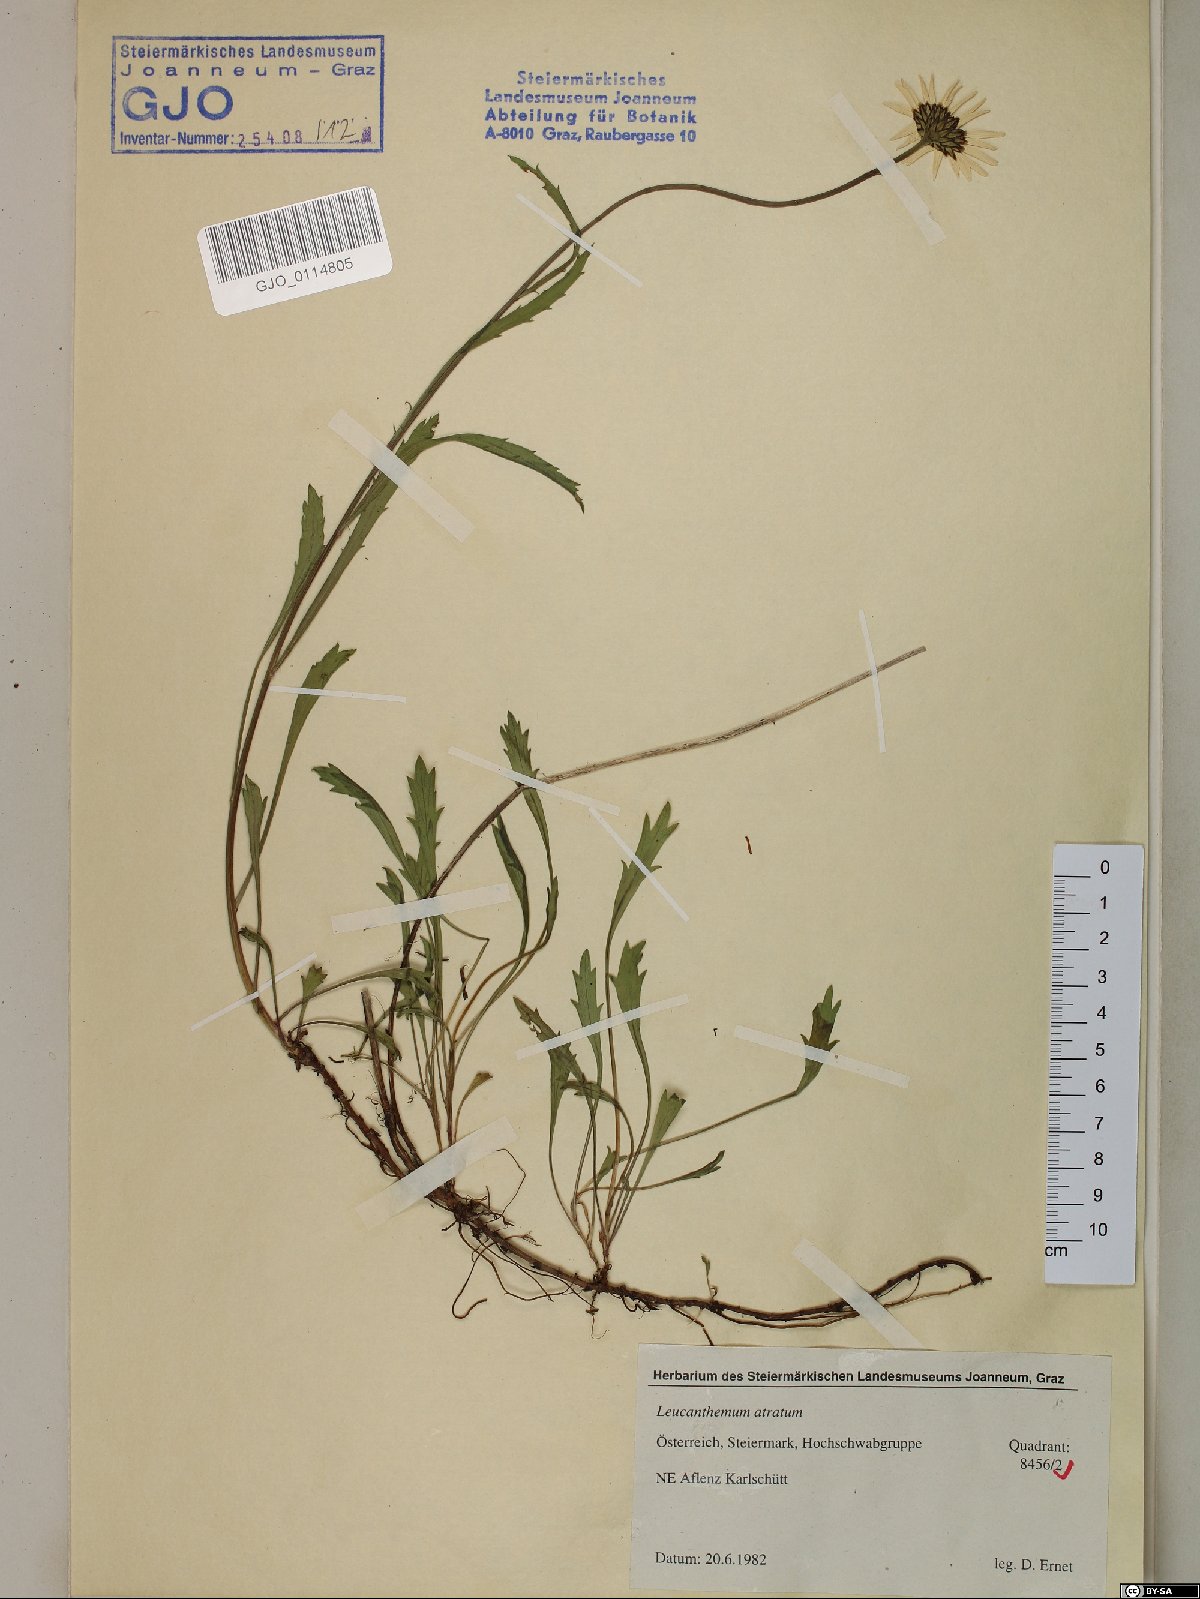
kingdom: Plantae
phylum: Tracheophyta
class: Magnoliopsida
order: Asterales
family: Asteraceae
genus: Leucanthemum
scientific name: Leucanthemum atratum
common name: Saw-leaved moon-daisy
